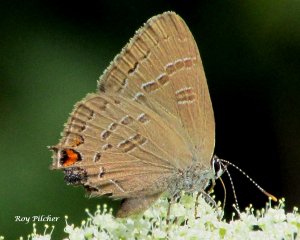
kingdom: Animalia
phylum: Arthropoda
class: Insecta
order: Lepidoptera
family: Lycaenidae
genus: Satyrium
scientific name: Satyrium calanus
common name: Banded Hairstreak
